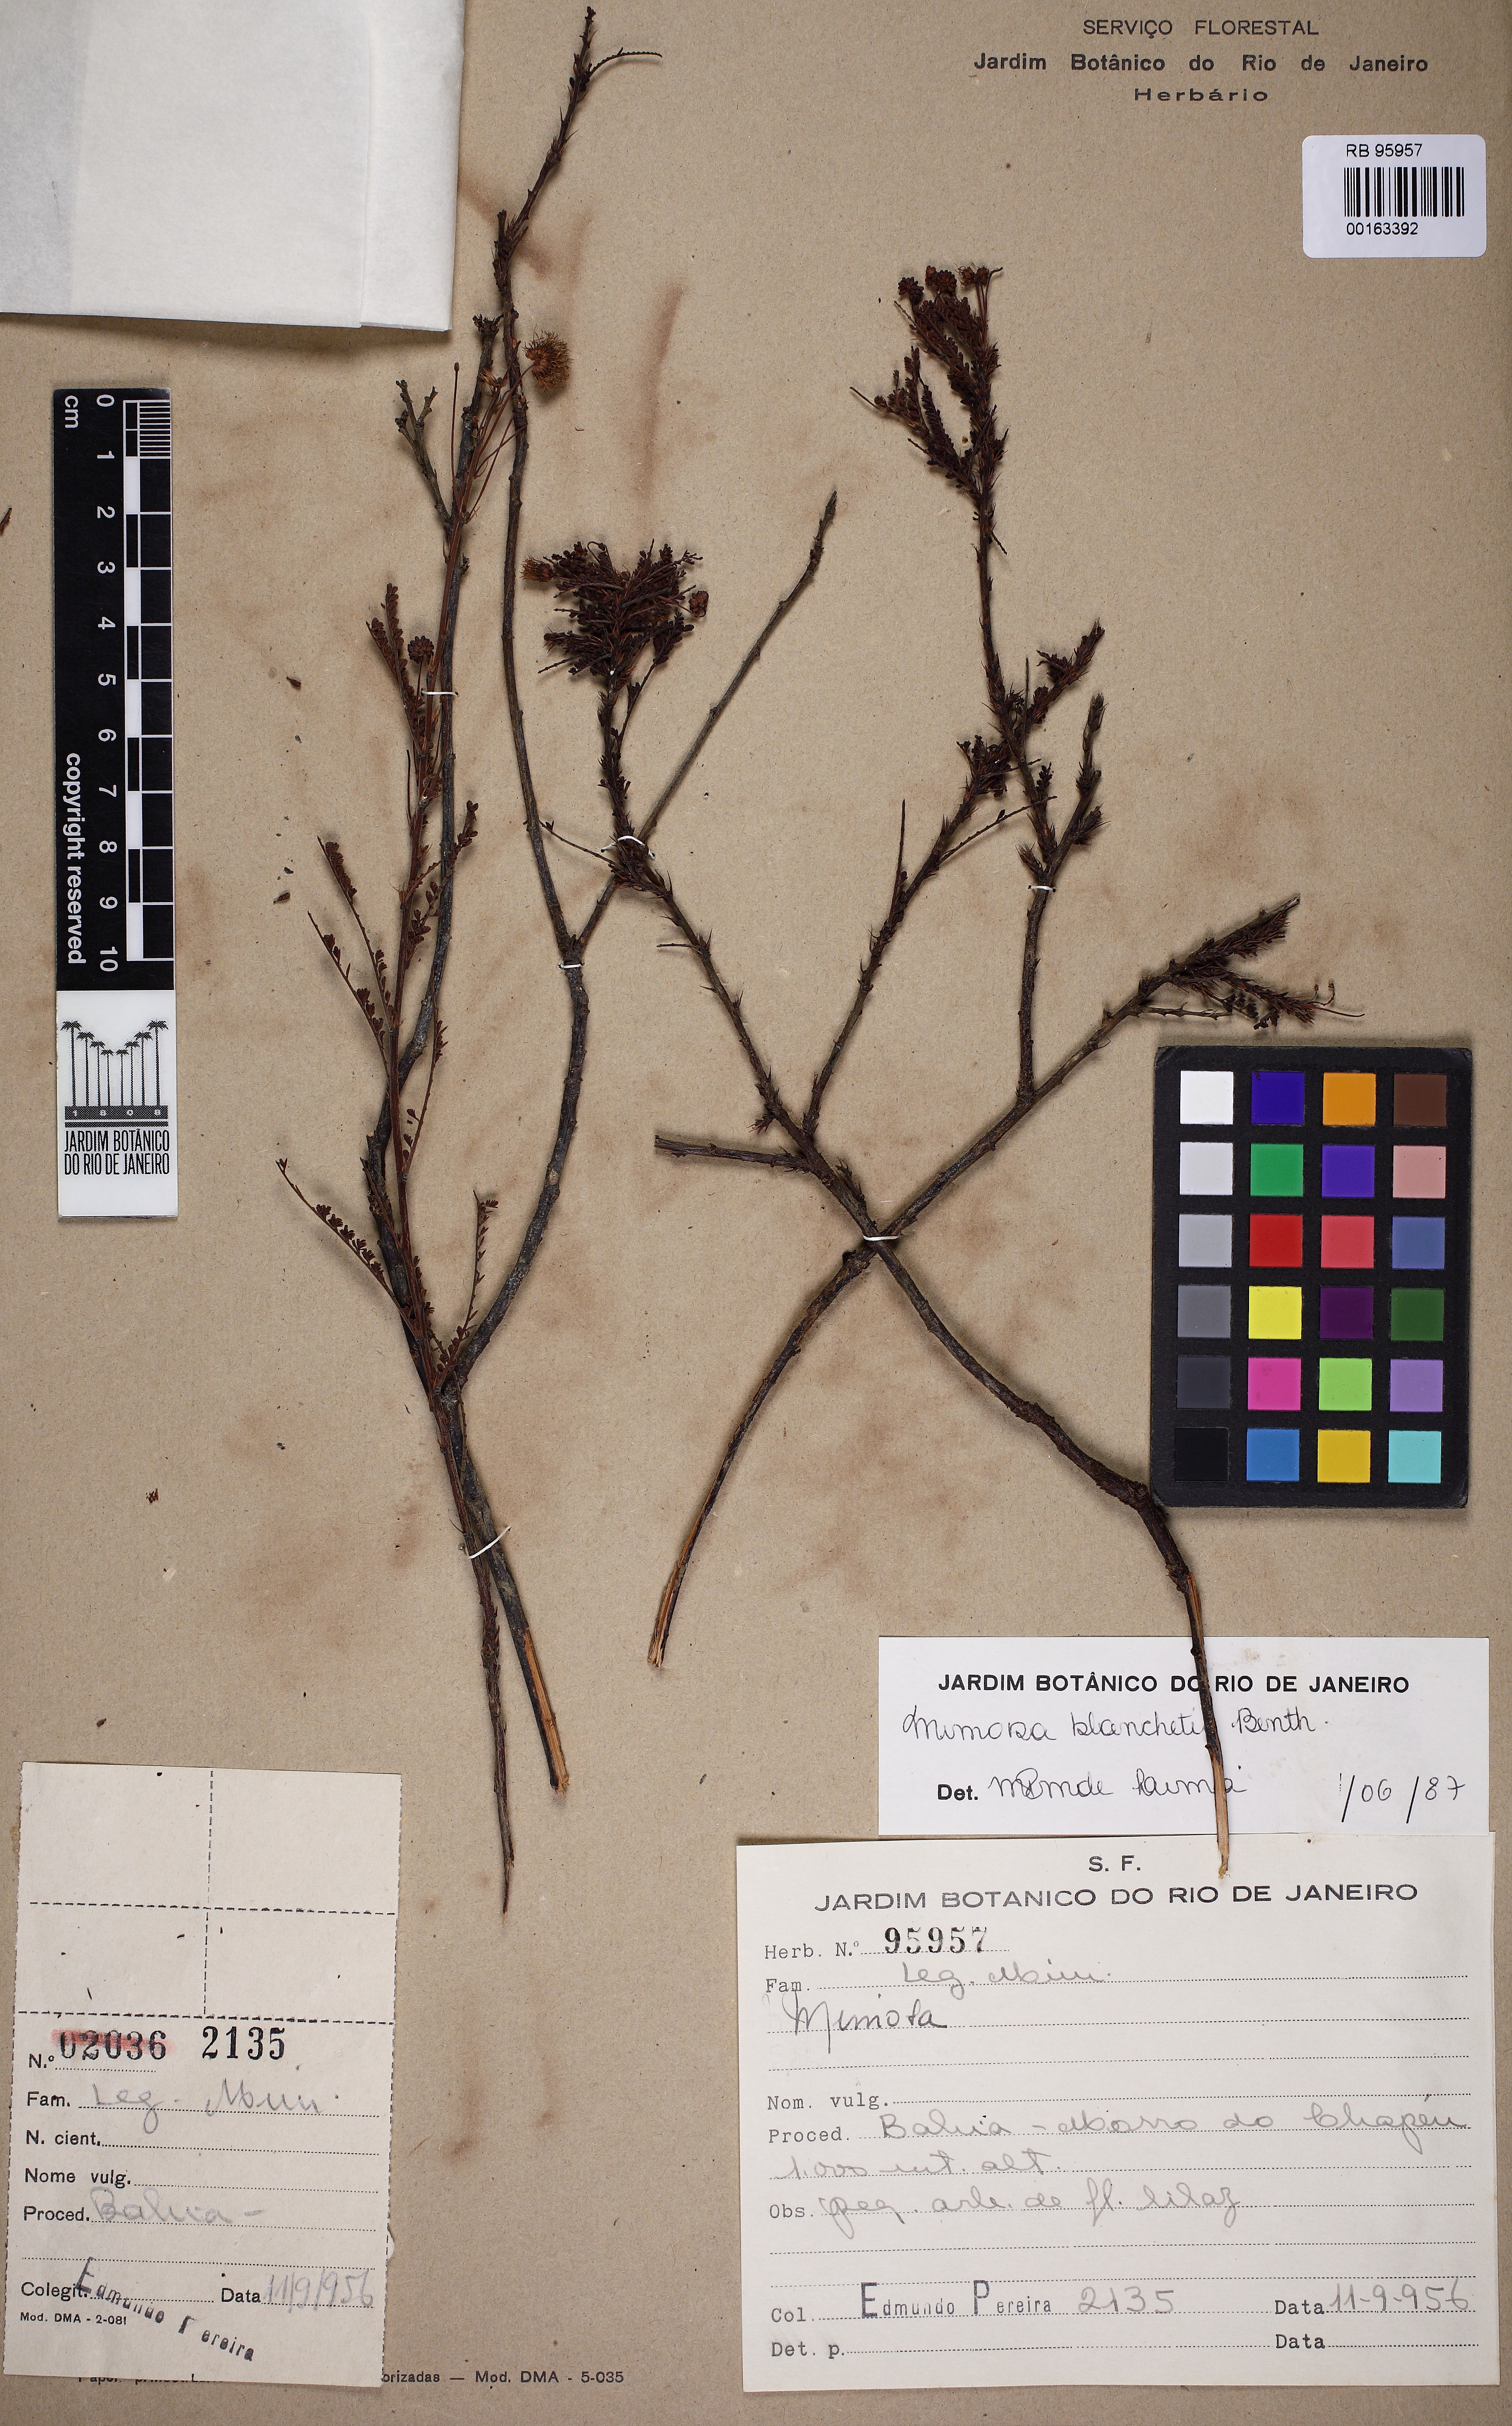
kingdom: Plantae
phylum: Tracheophyta
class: Magnoliopsida
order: Fabales
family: Fabaceae
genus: Mimosa
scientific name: Mimosa blanchetii
